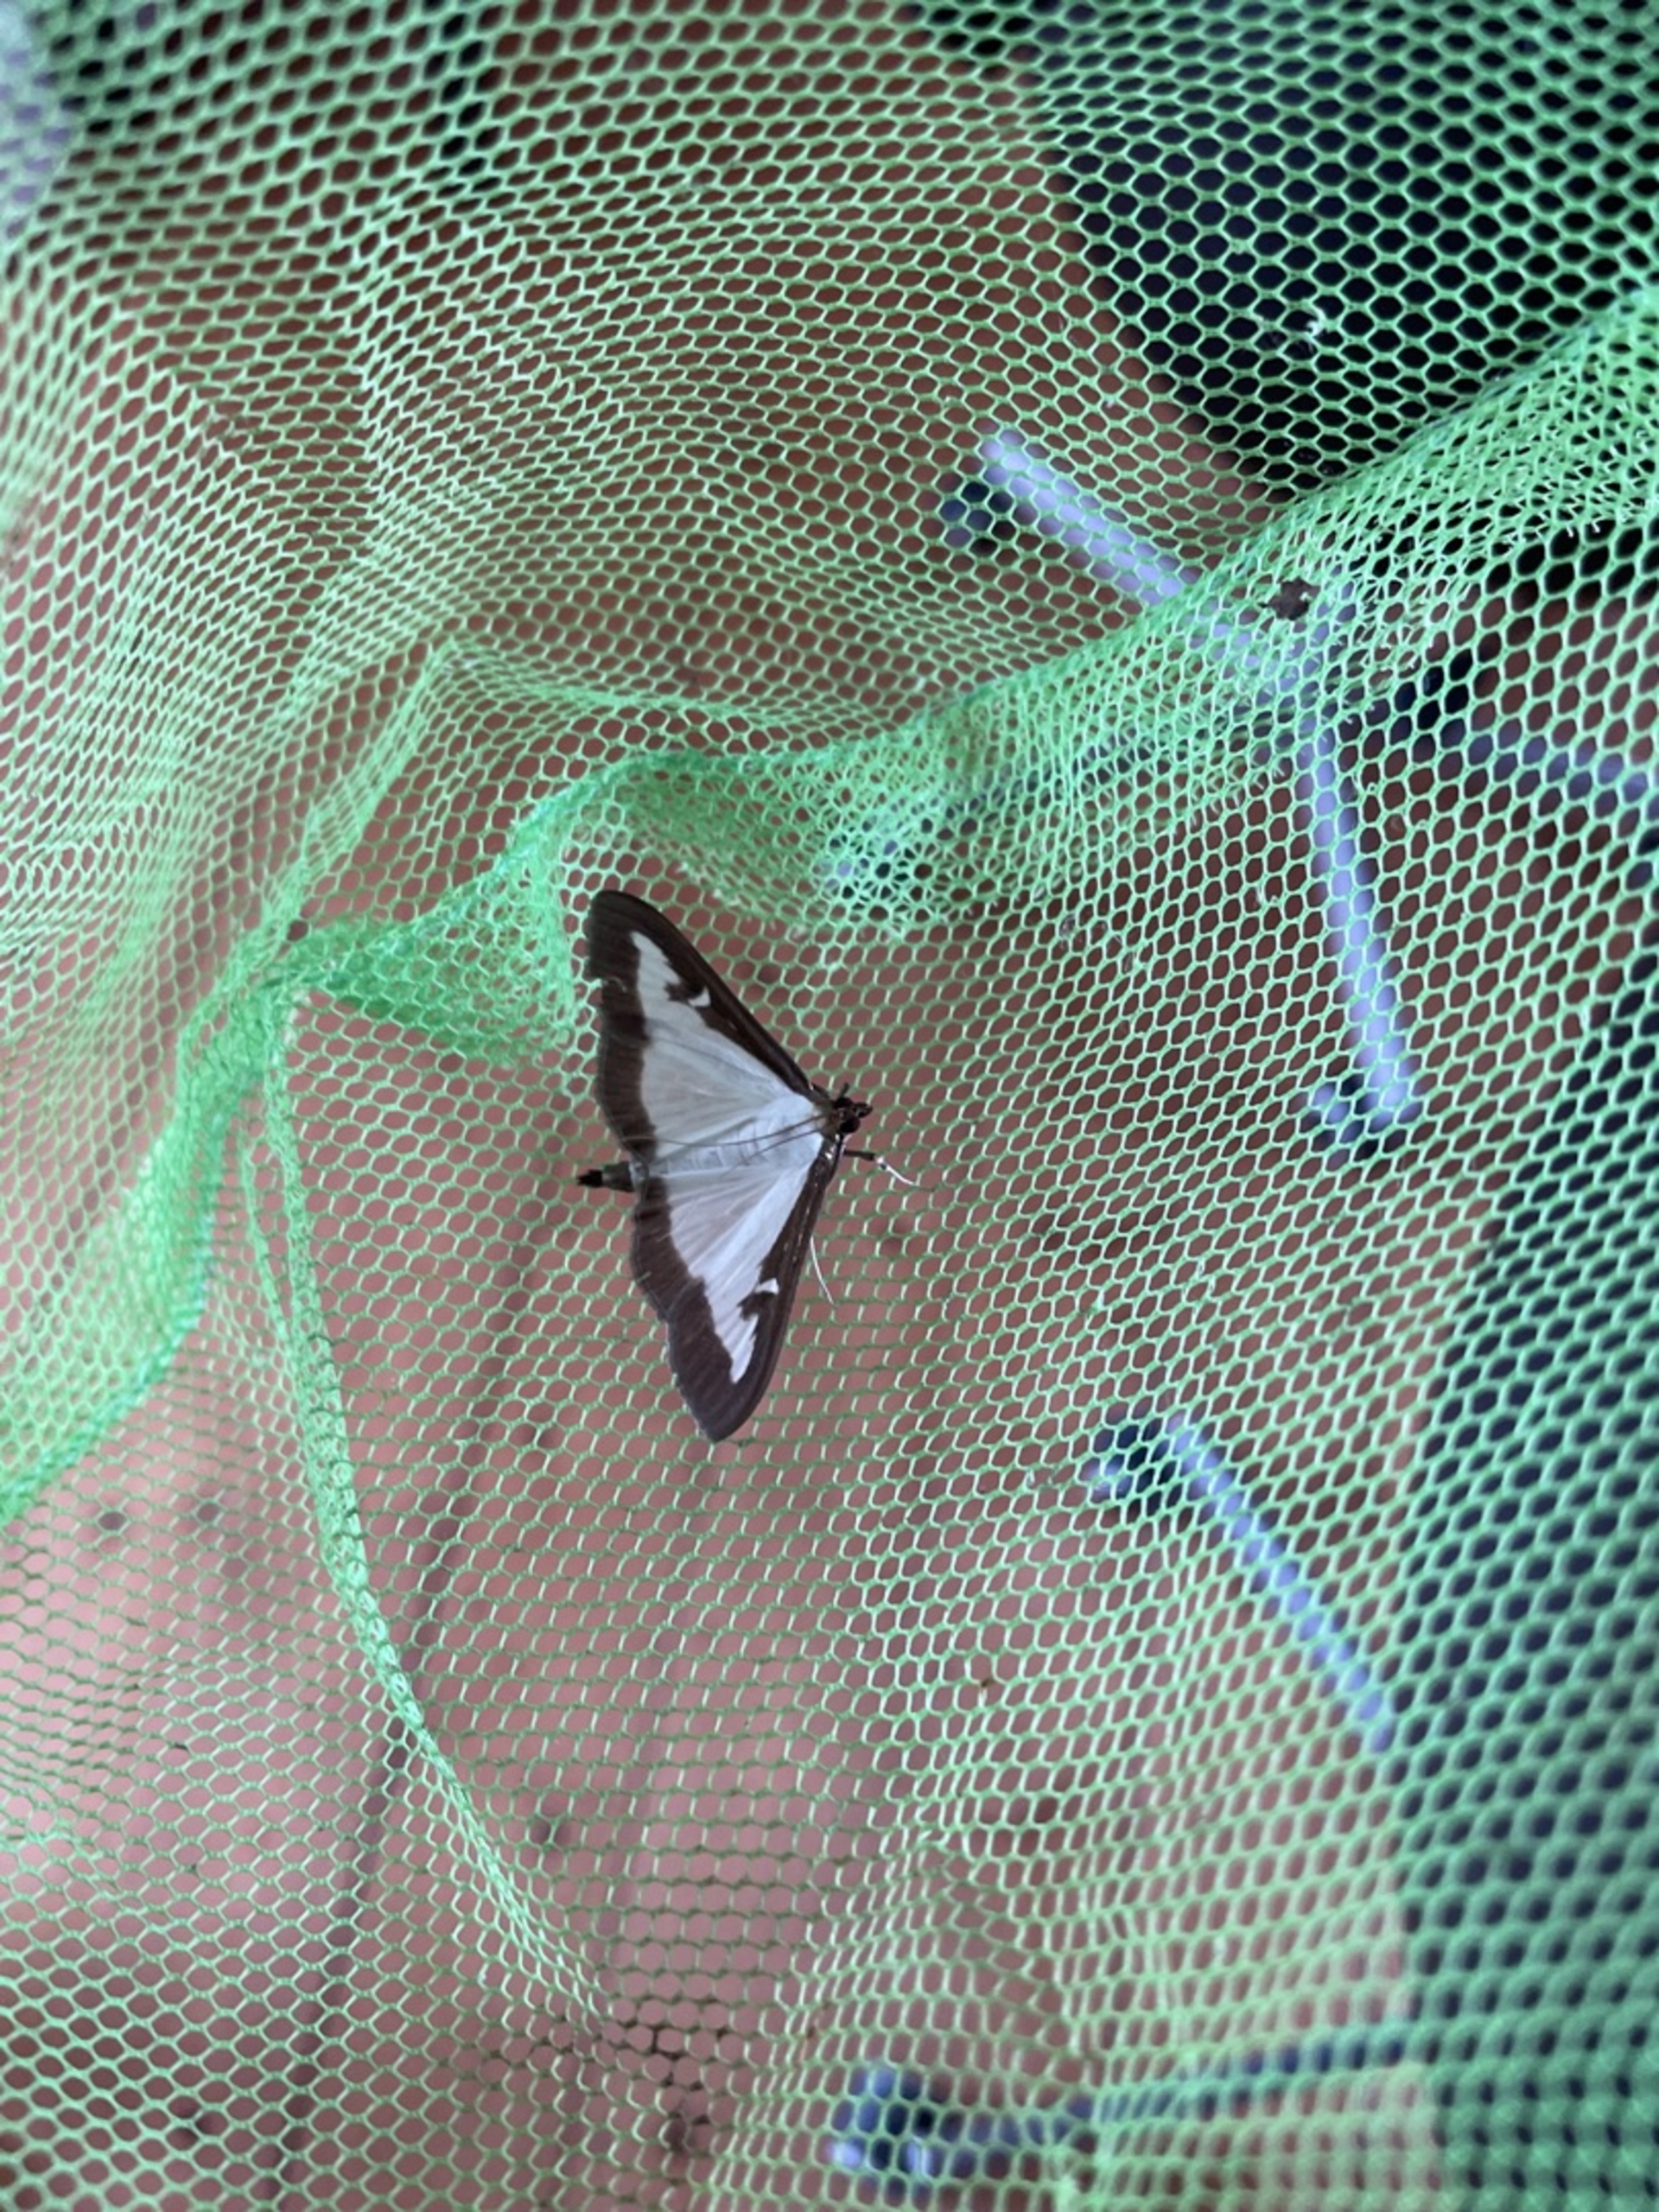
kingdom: Animalia
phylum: Arthropoda
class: Insecta
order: Lepidoptera
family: Crambidae
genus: Cydalima
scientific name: Cydalima perspectalis
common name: Buksbomhalvmøl
